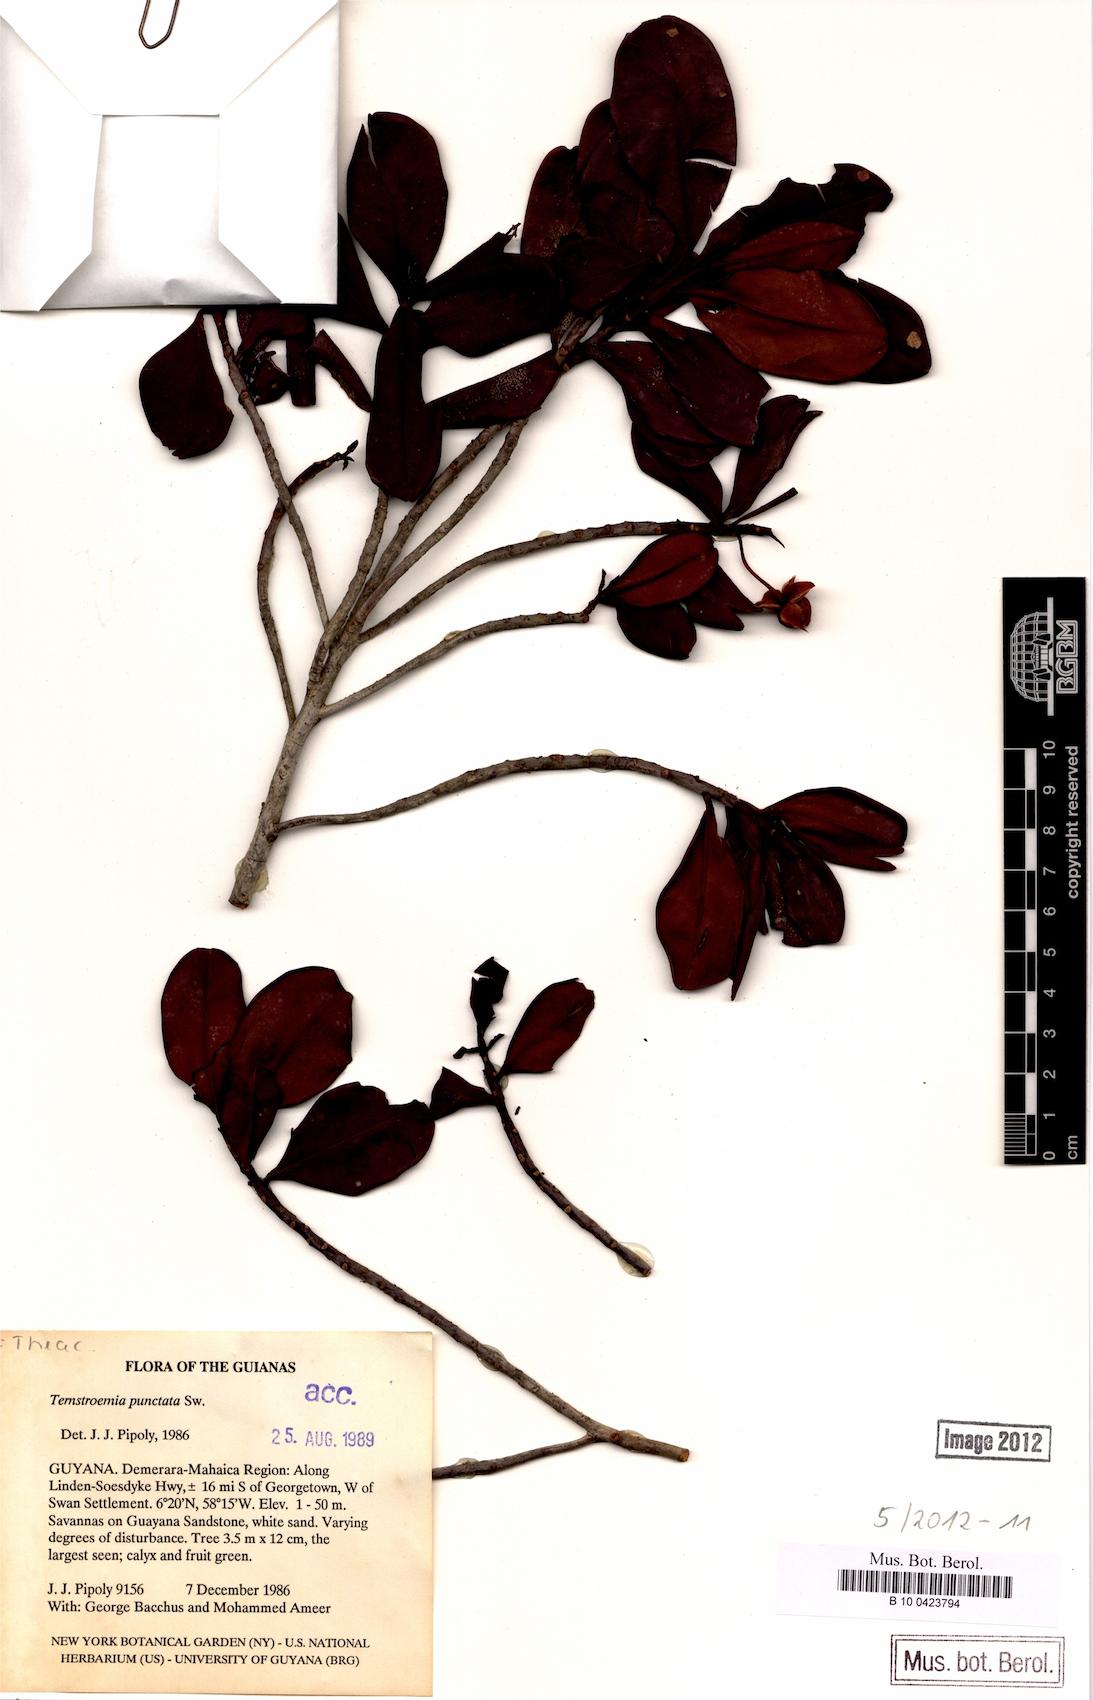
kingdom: Plantae
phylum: Tracheophyta
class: Magnoliopsida
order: Ericales
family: Pentaphylacaceae
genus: Ternstroemia
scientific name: Ternstroemia punctata
